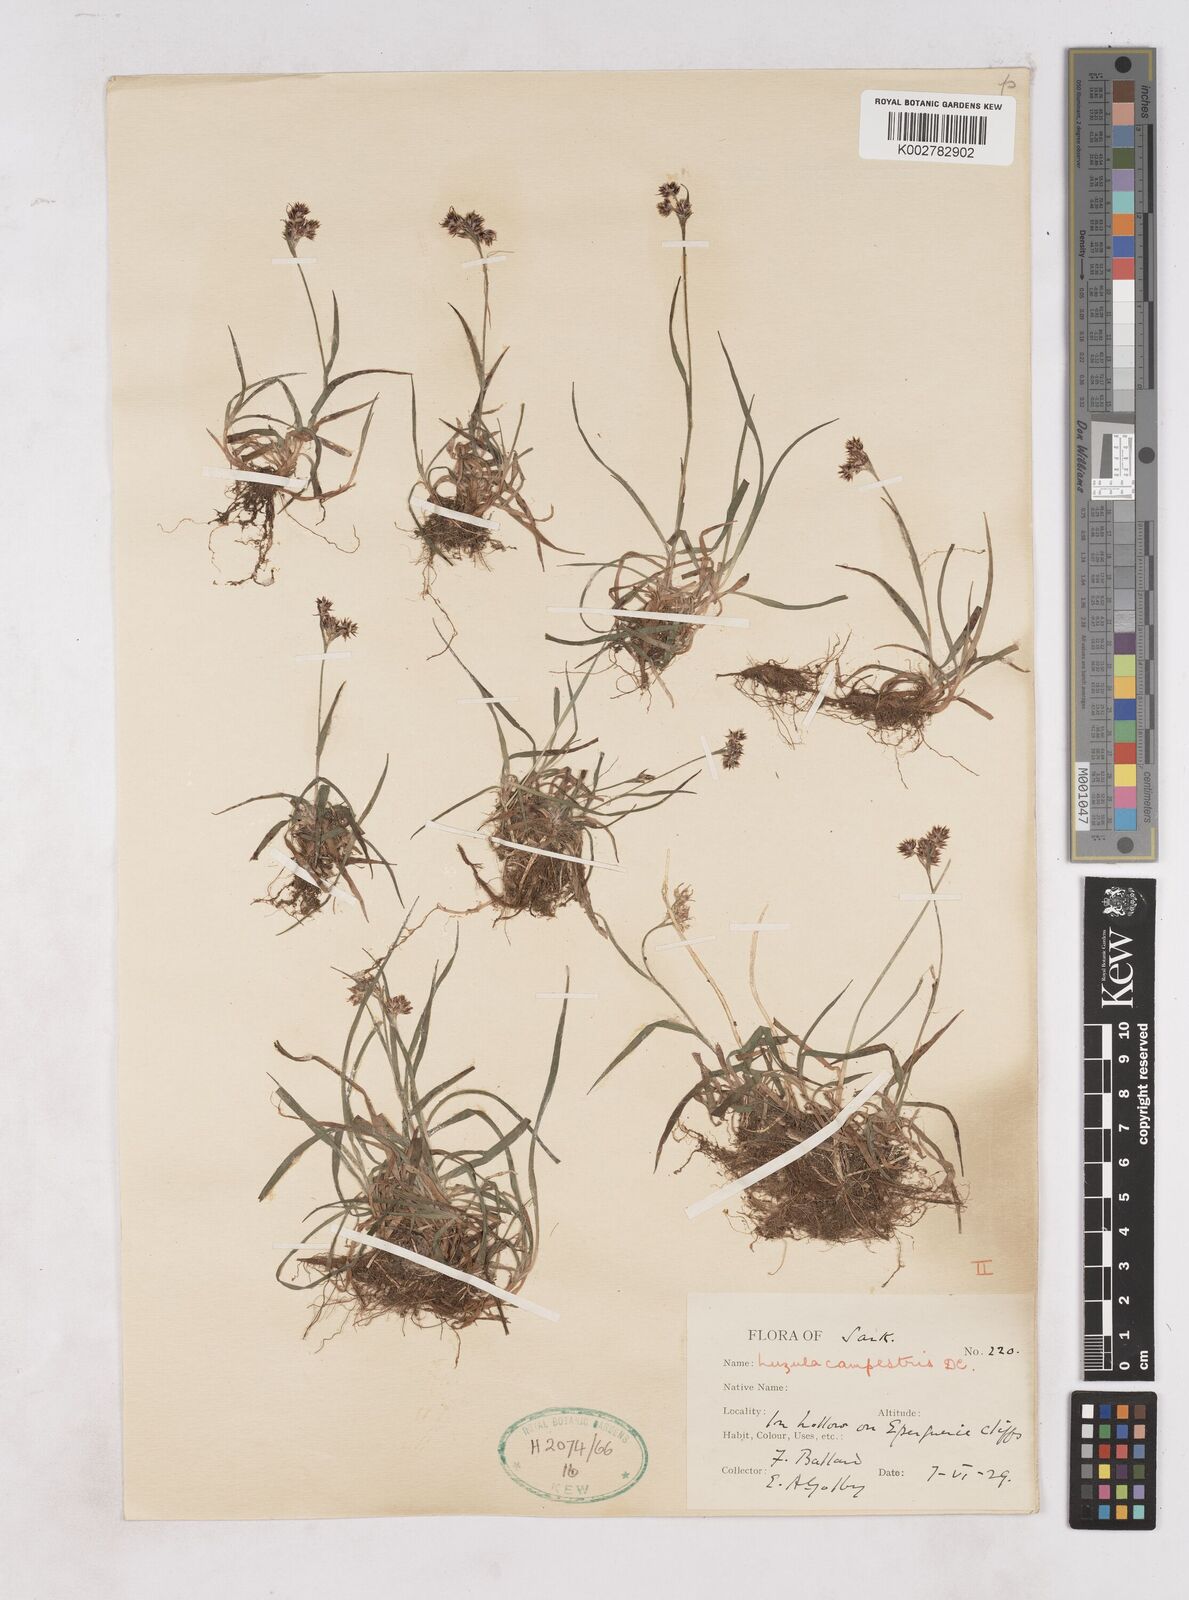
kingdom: Plantae
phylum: Tracheophyta
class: Liliopsida
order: Poales
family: Juncaceae
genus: Luzula
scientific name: Luzula campestris
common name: Field wood-rush
